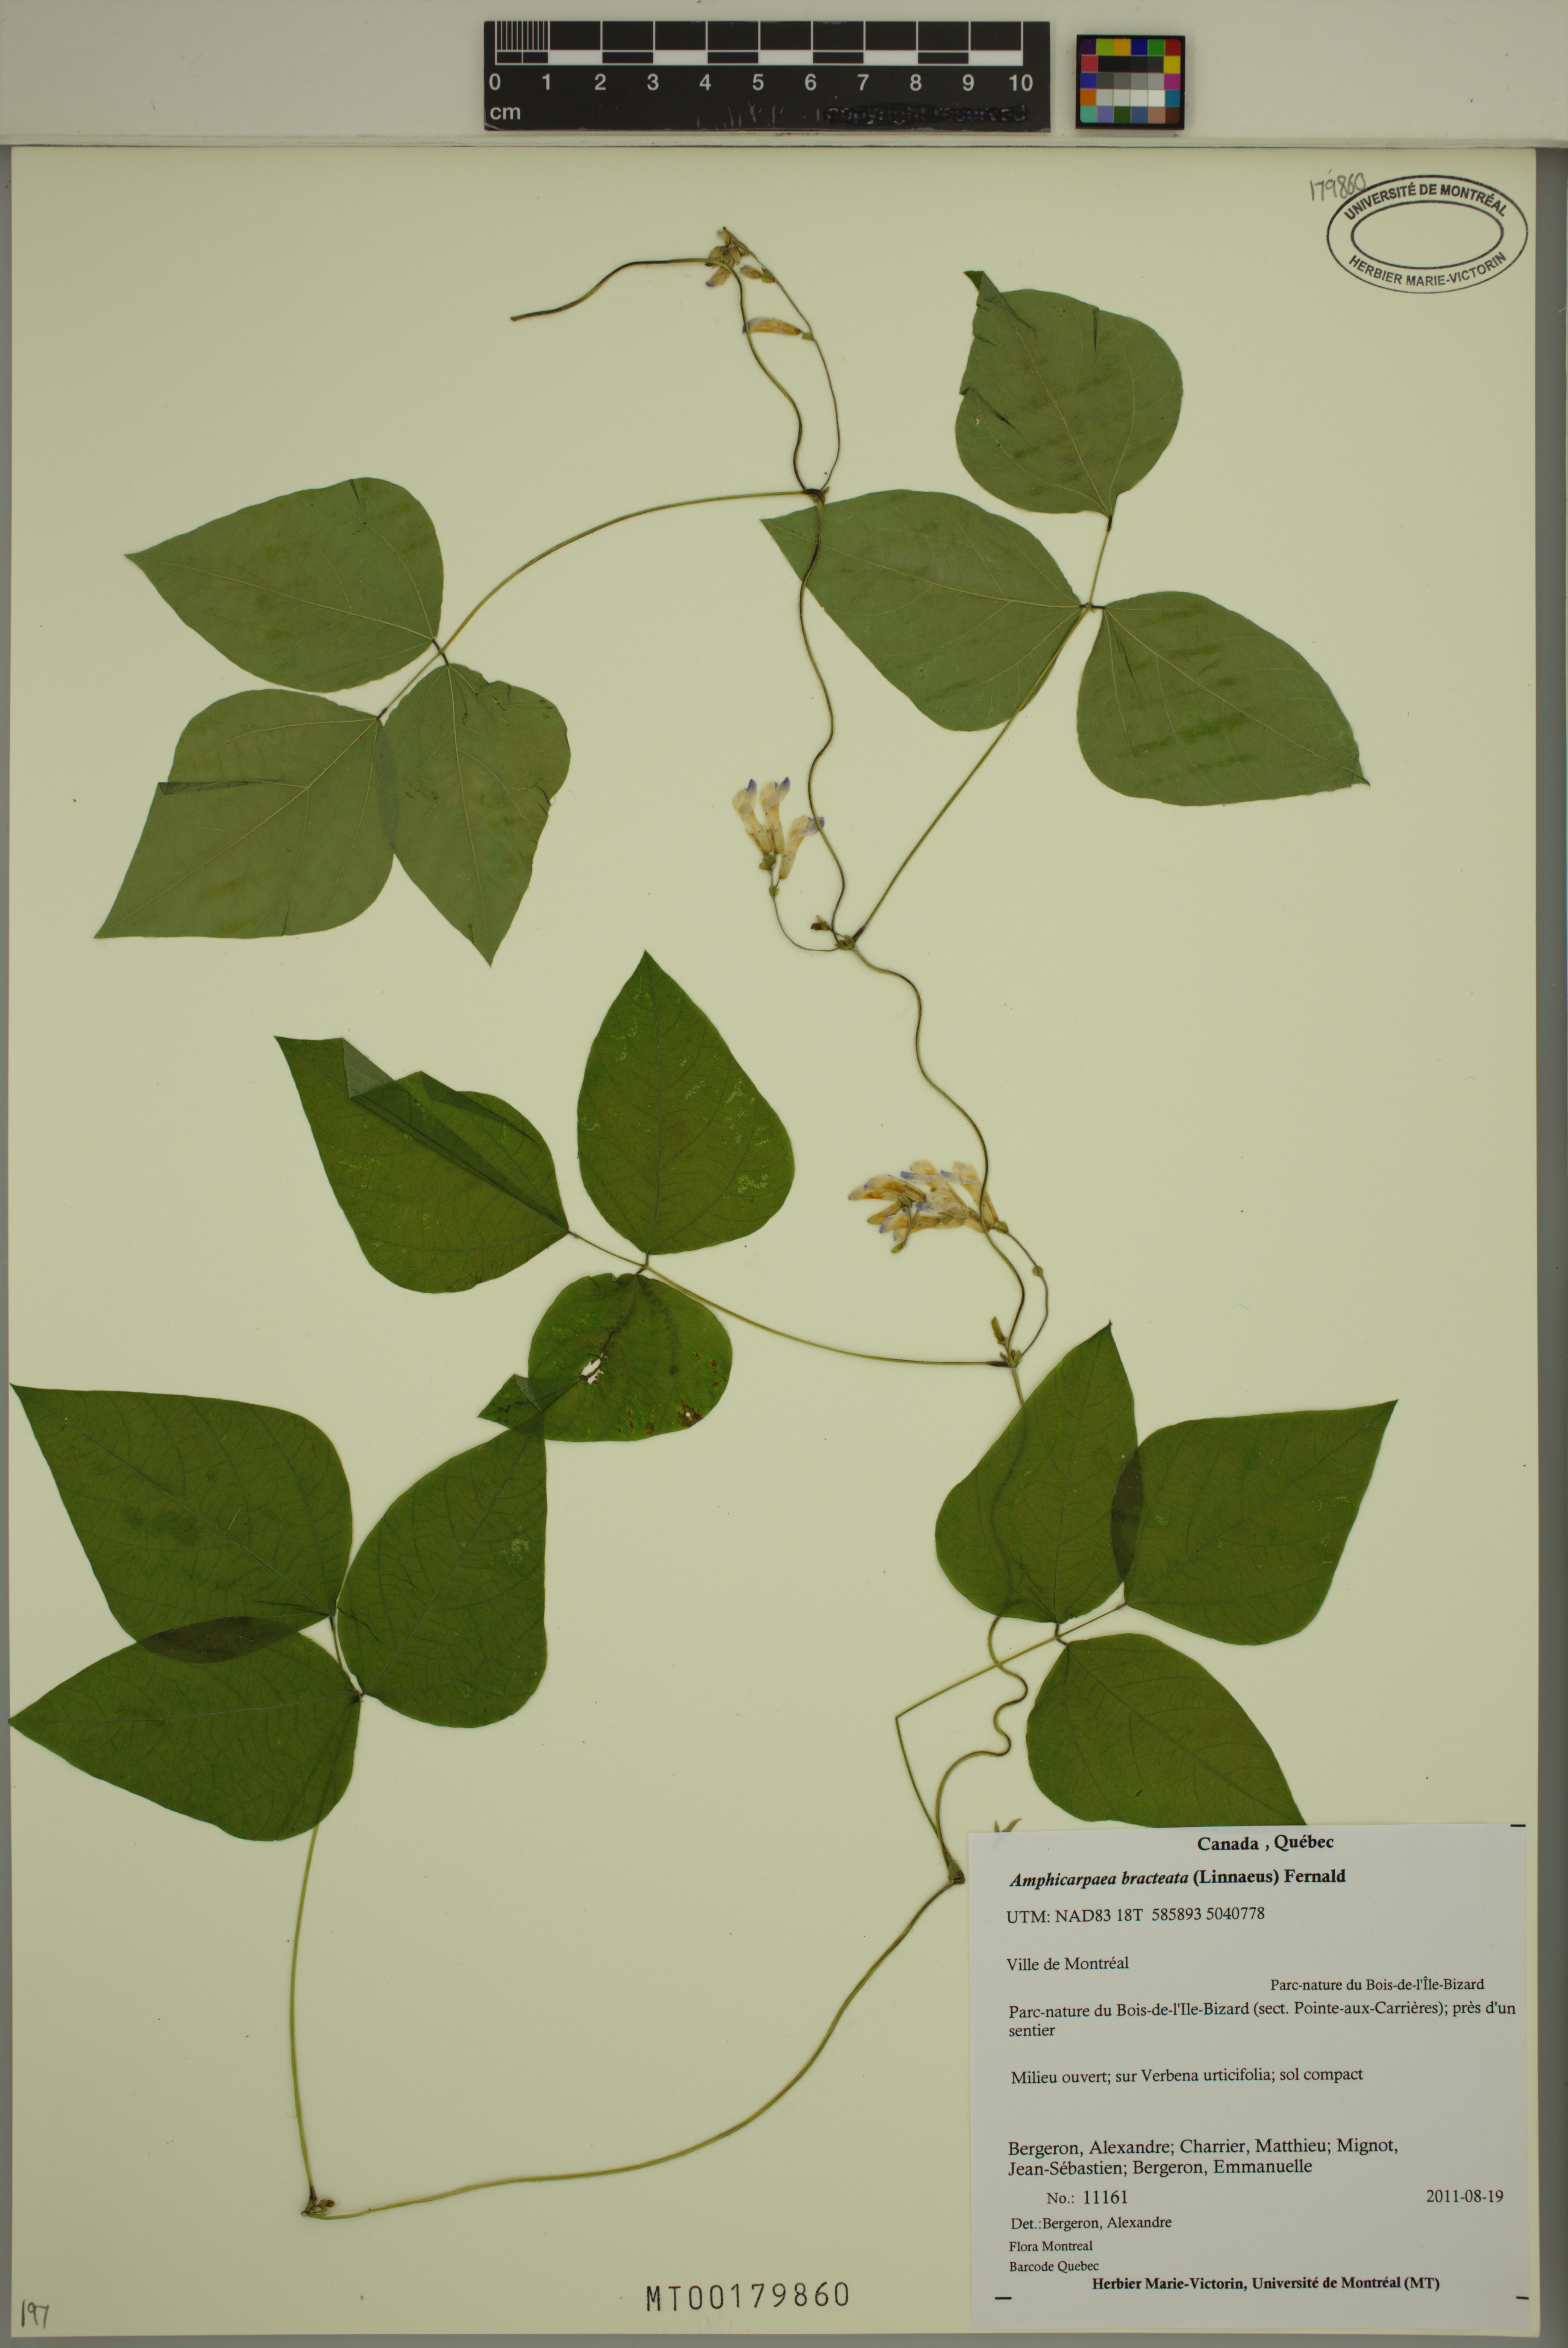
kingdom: Plantae
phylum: Tracheophyta
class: Magnoliopsida
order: Fabales
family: Fabaceae
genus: Amphicarpaea
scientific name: Amphicarpaea bracteata
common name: American hog peanut
